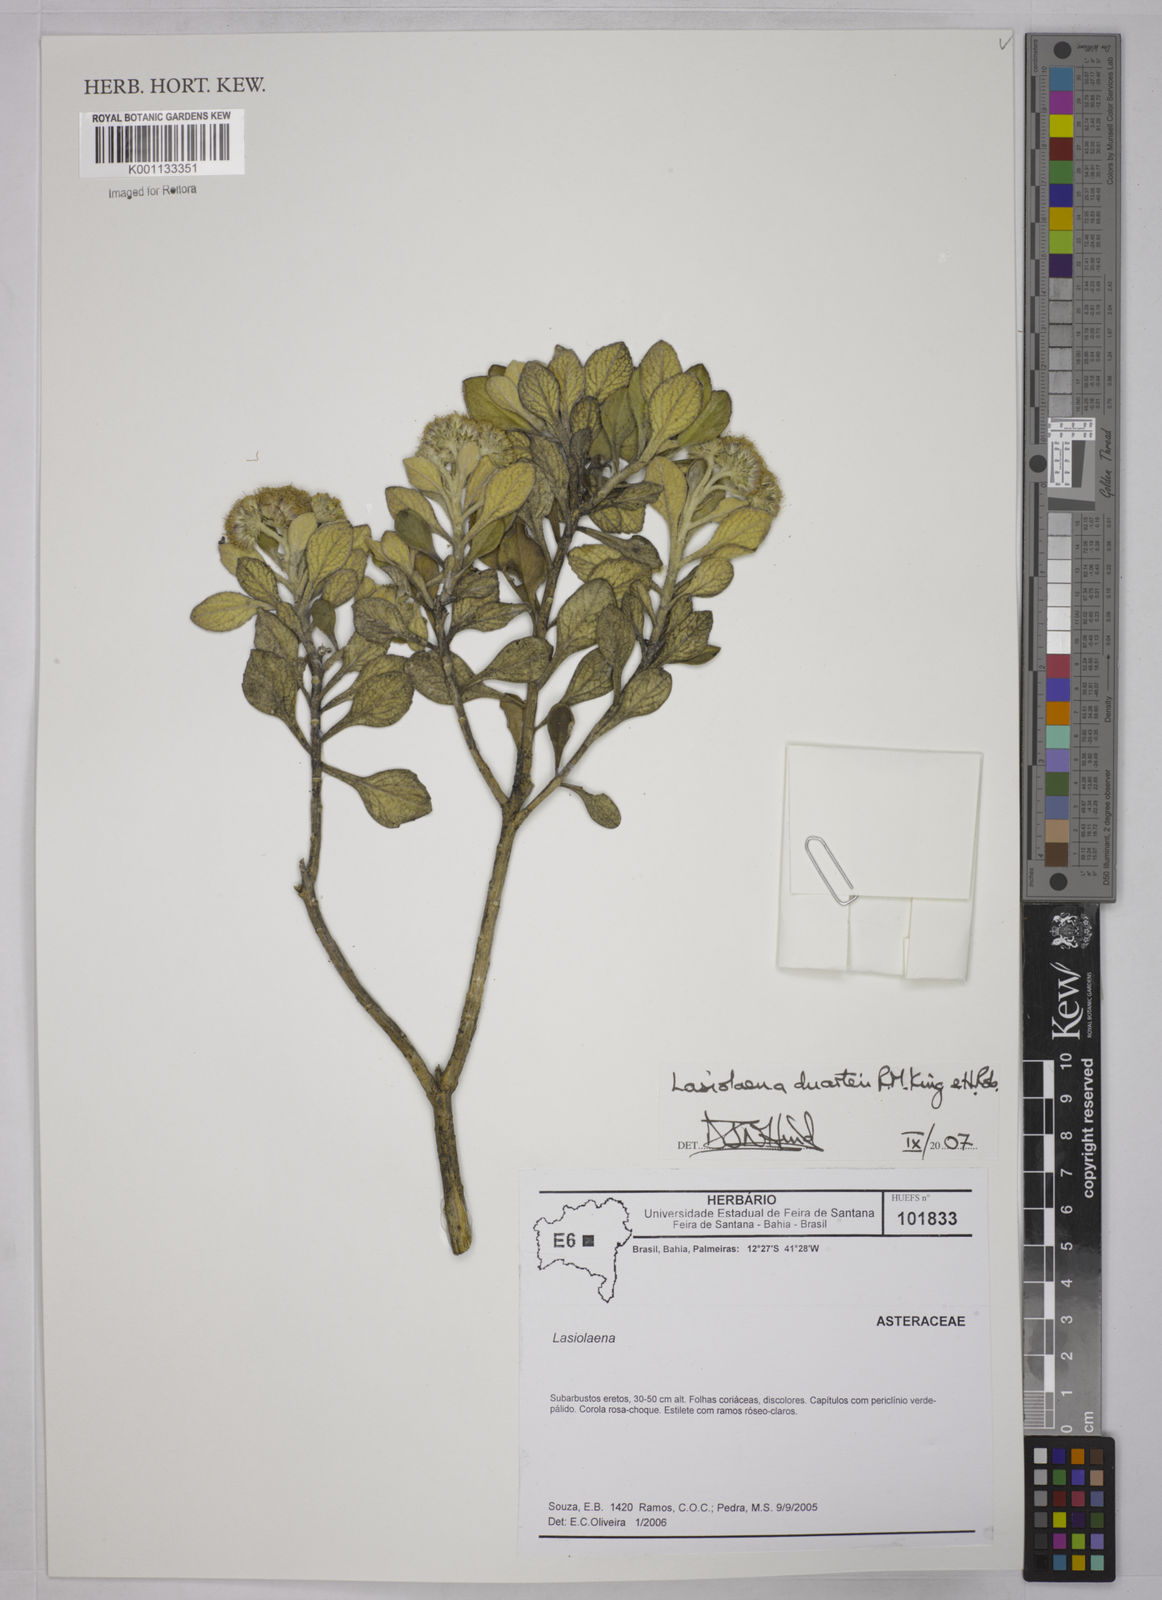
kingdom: Plantae
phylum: Tracheophyta
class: Magnoliopsida
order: Asterales
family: Asteraceae
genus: Lasiolaena
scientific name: Lasiolaena duartei
